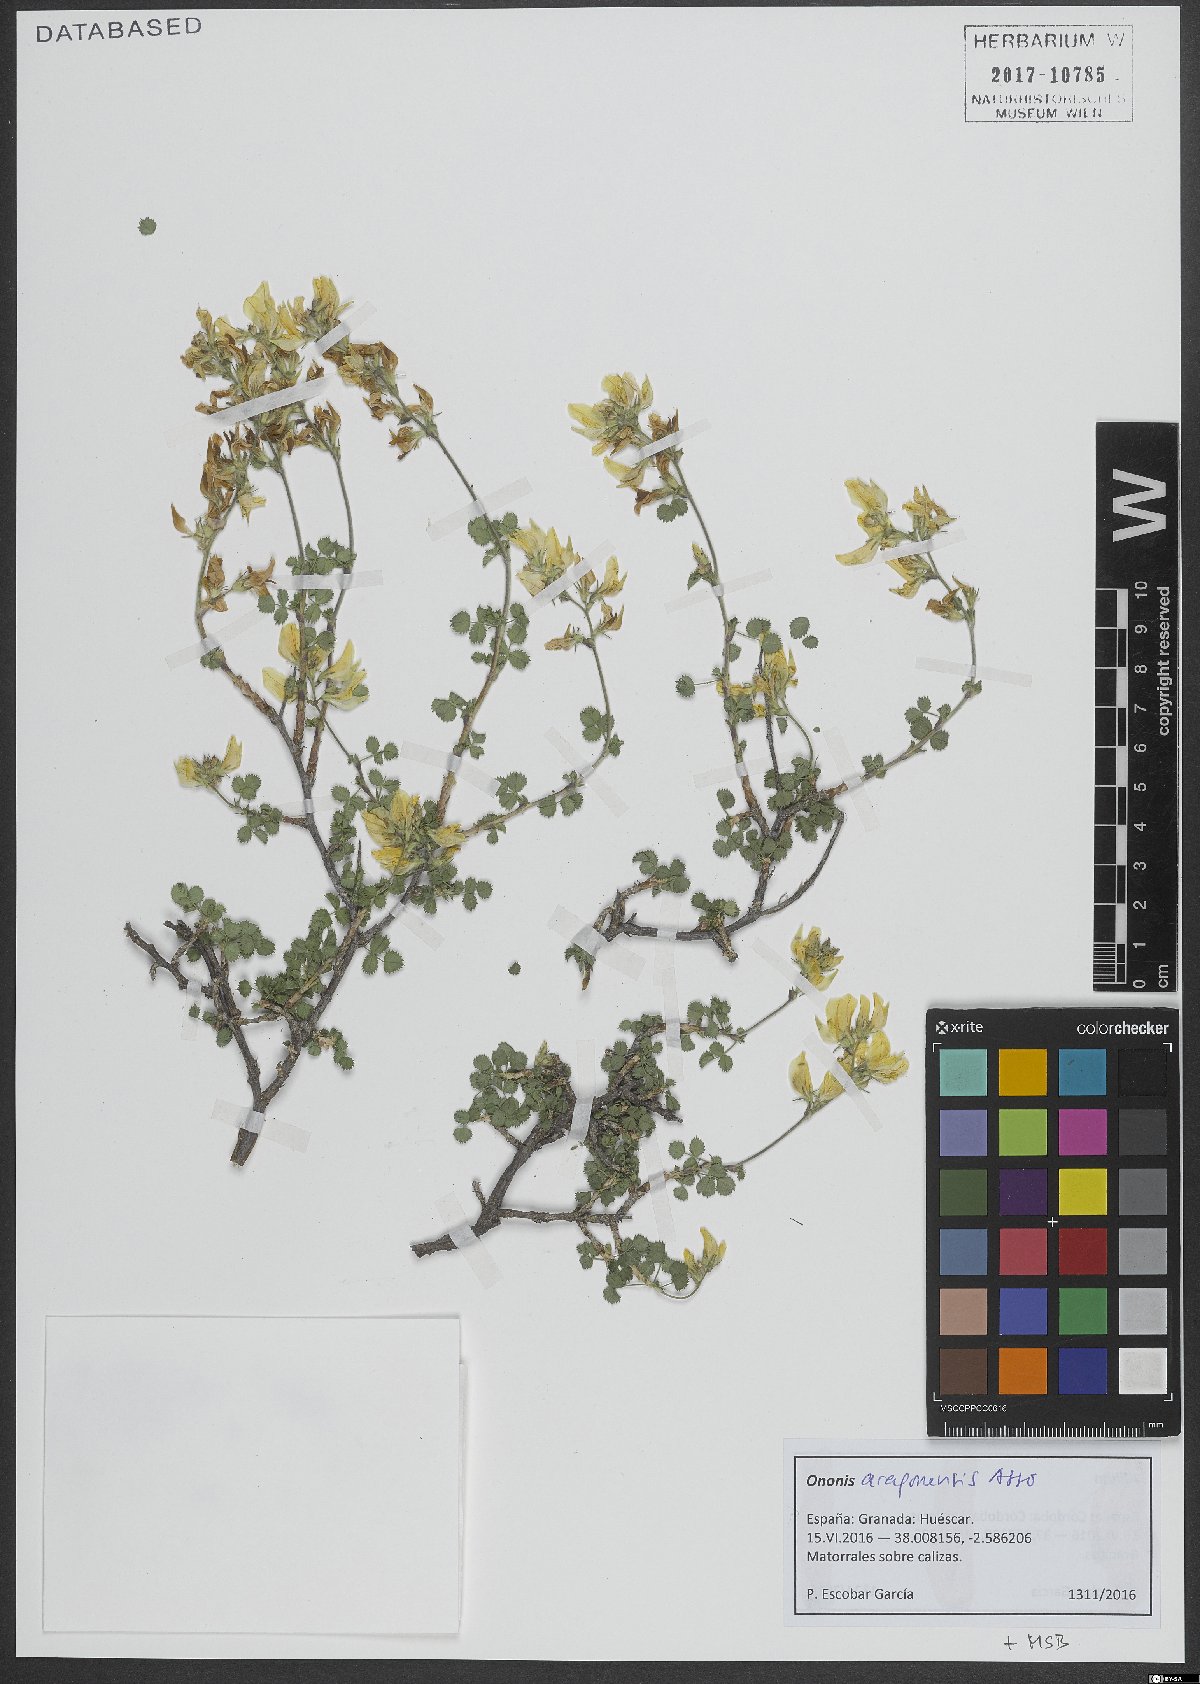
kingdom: Plantae
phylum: Tracheophyta
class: Magnoliopsida
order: Fabales
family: Fabaceae
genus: Ononis
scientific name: Ononis aragonensis
